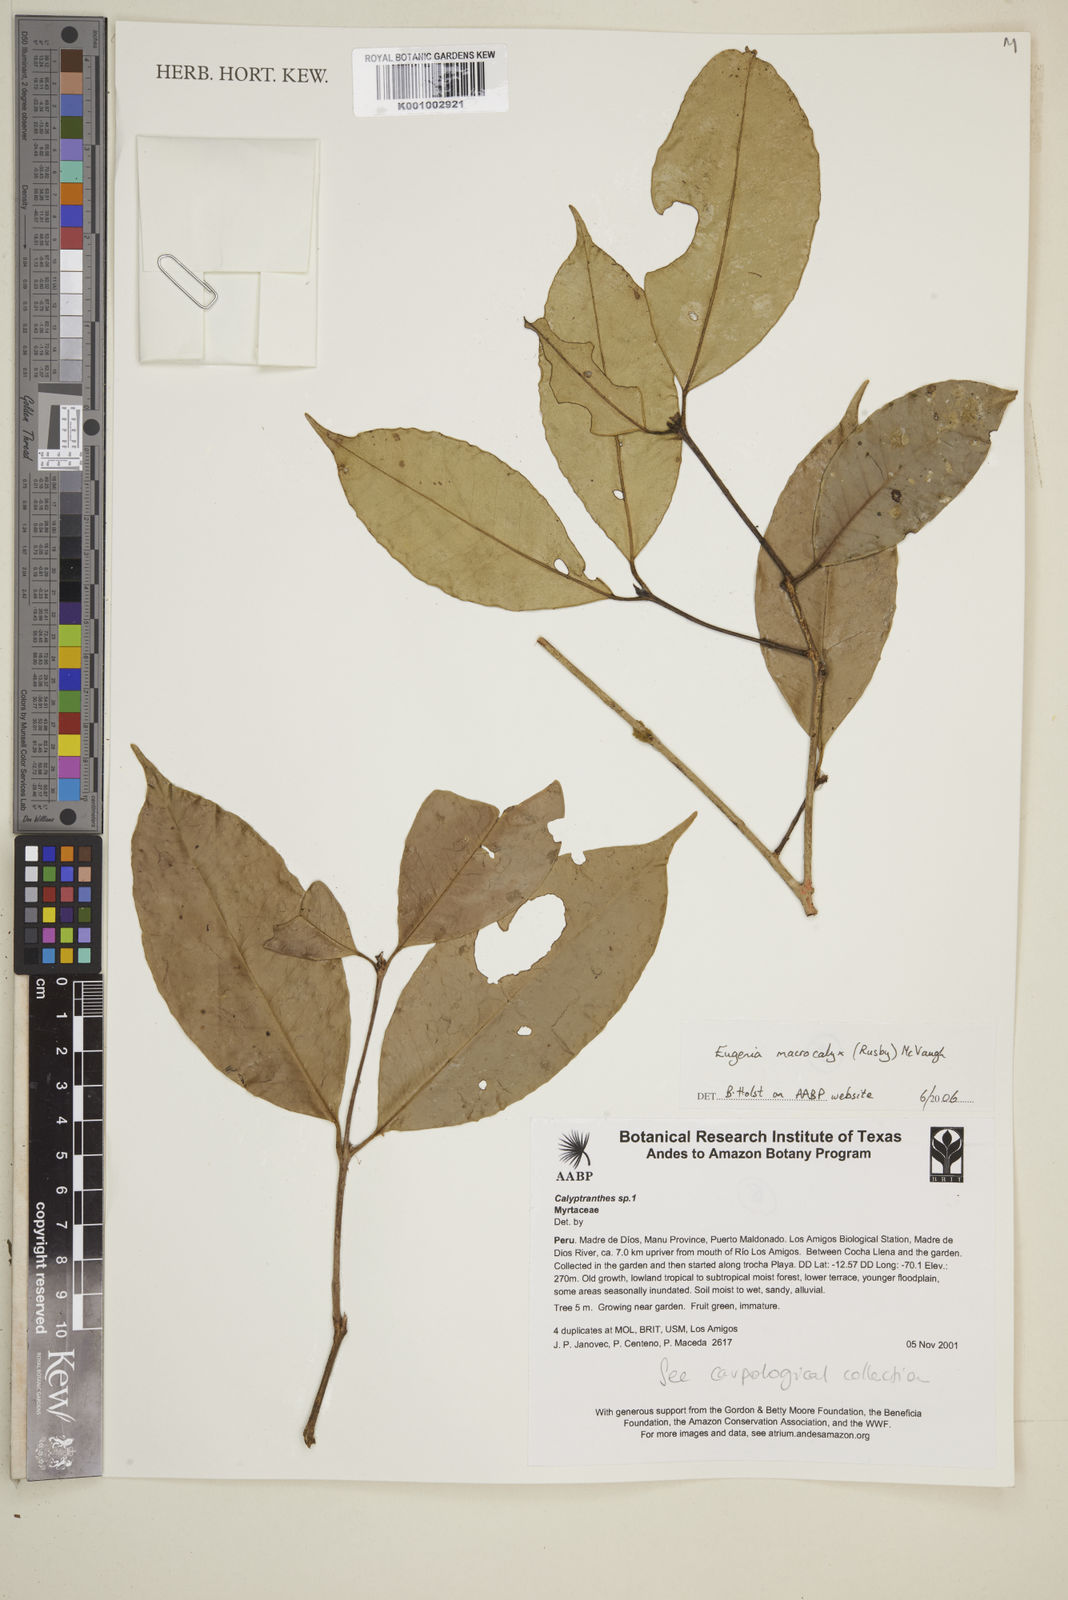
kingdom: Plantae
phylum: Tracheophyta
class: Magnoliopsida
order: Myrtales
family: Myrtaceae
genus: Eugenia
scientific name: Eugenia
